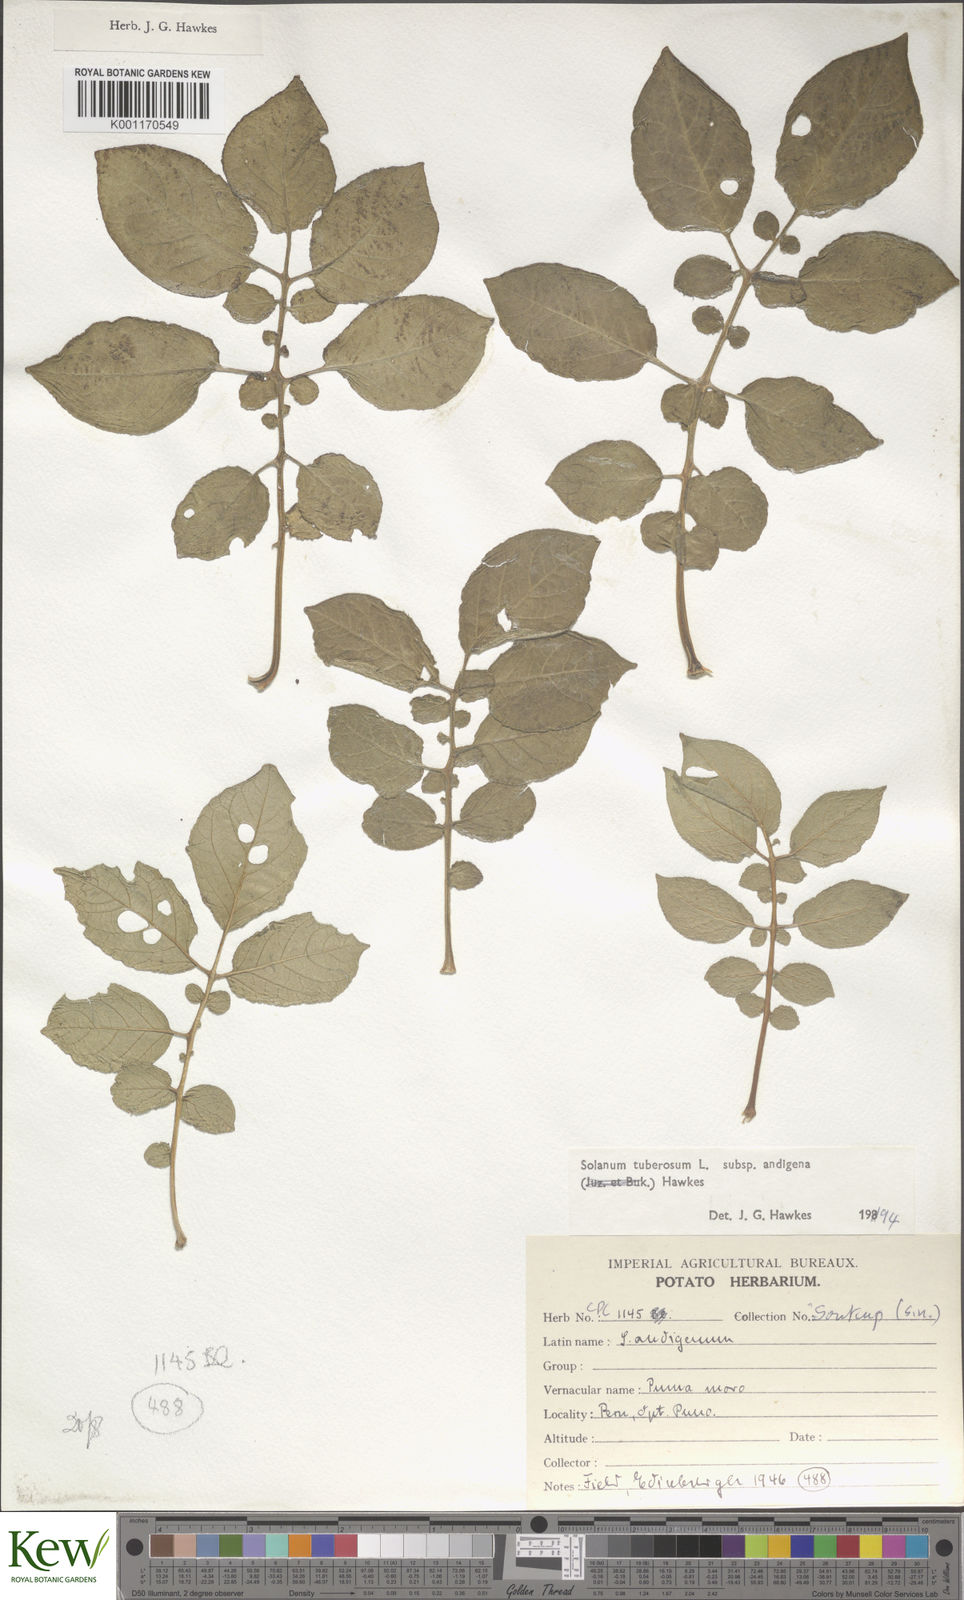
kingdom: Plantae
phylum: Tracheophyta
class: Magnoliopsida
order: Solanales
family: Solanaceae
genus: Solanum
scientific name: Solanum tuberosum
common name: Potato
